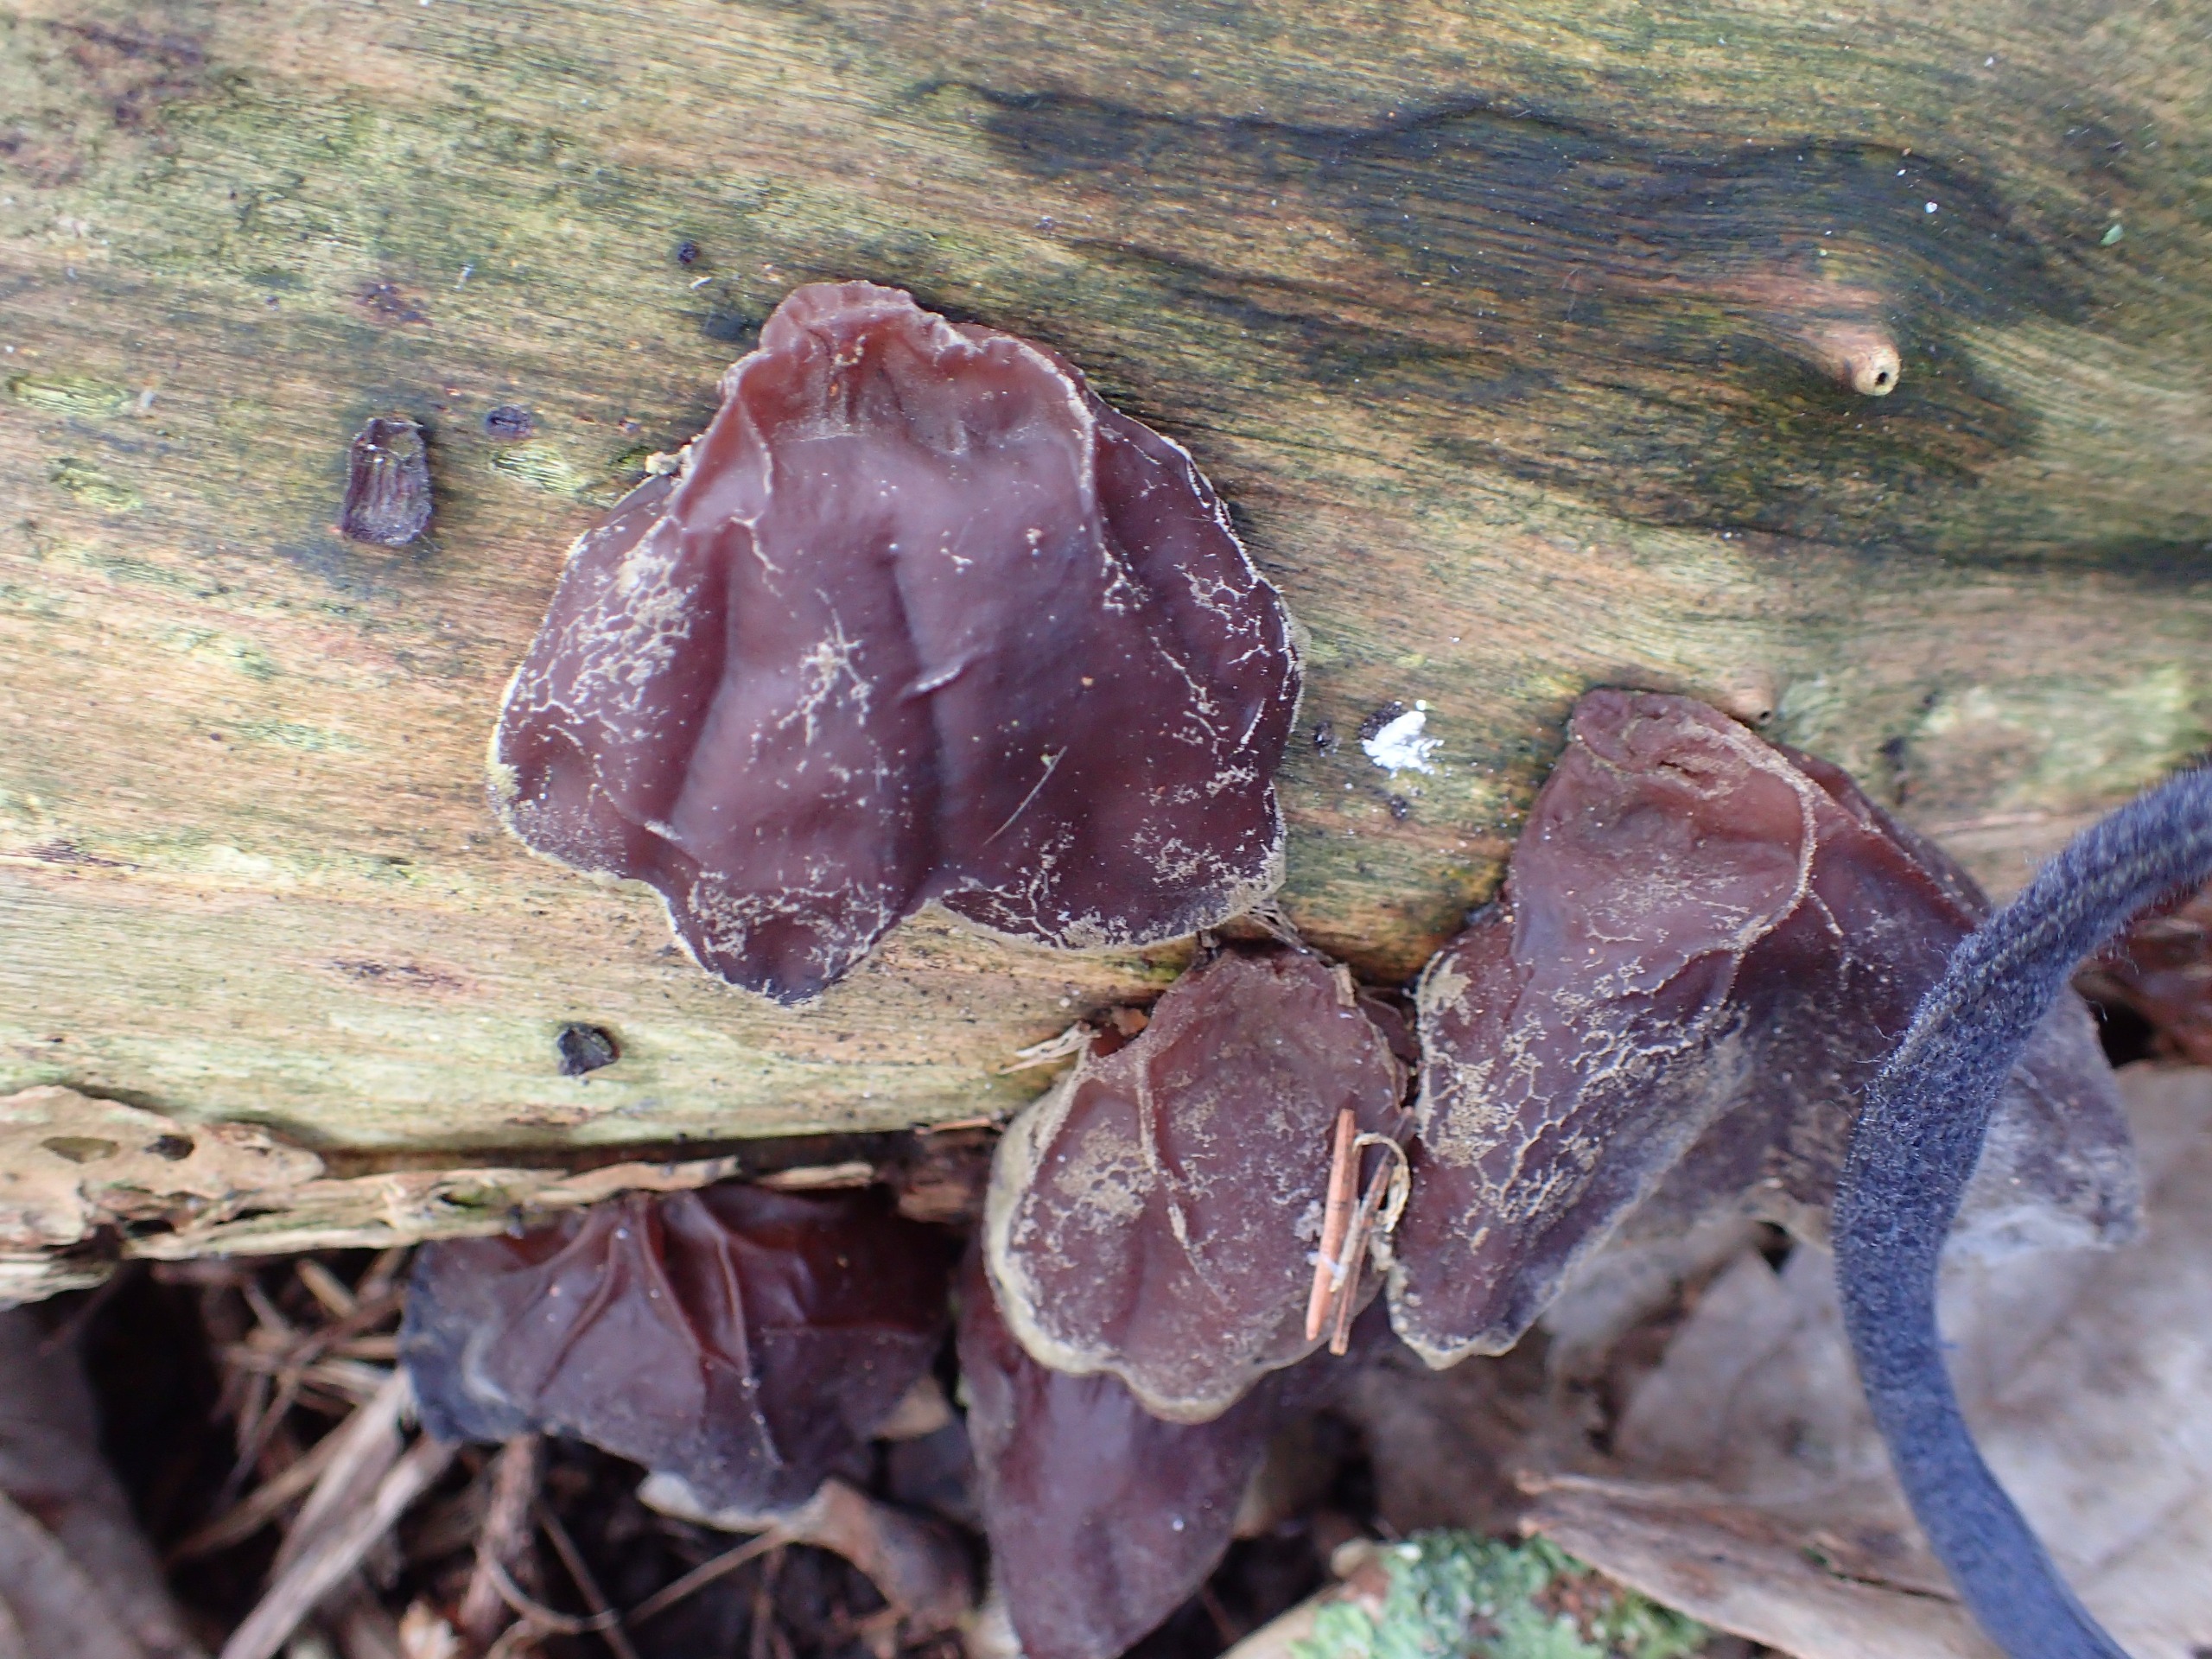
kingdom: Fungi
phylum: Basidiomycota
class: Agaricomycetes
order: Auriculariales
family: Auriculariaceae
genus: Auricularia
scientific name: Auricularia auricula-judae
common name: Almindelig judasøre
